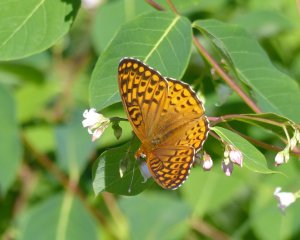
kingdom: Animalia
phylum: Arthropoda
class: Insecta
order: Lepidoptera
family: Nymphalidae
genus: Speyeria
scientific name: Speyeria atlantis
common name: Atlantis Fritillary
